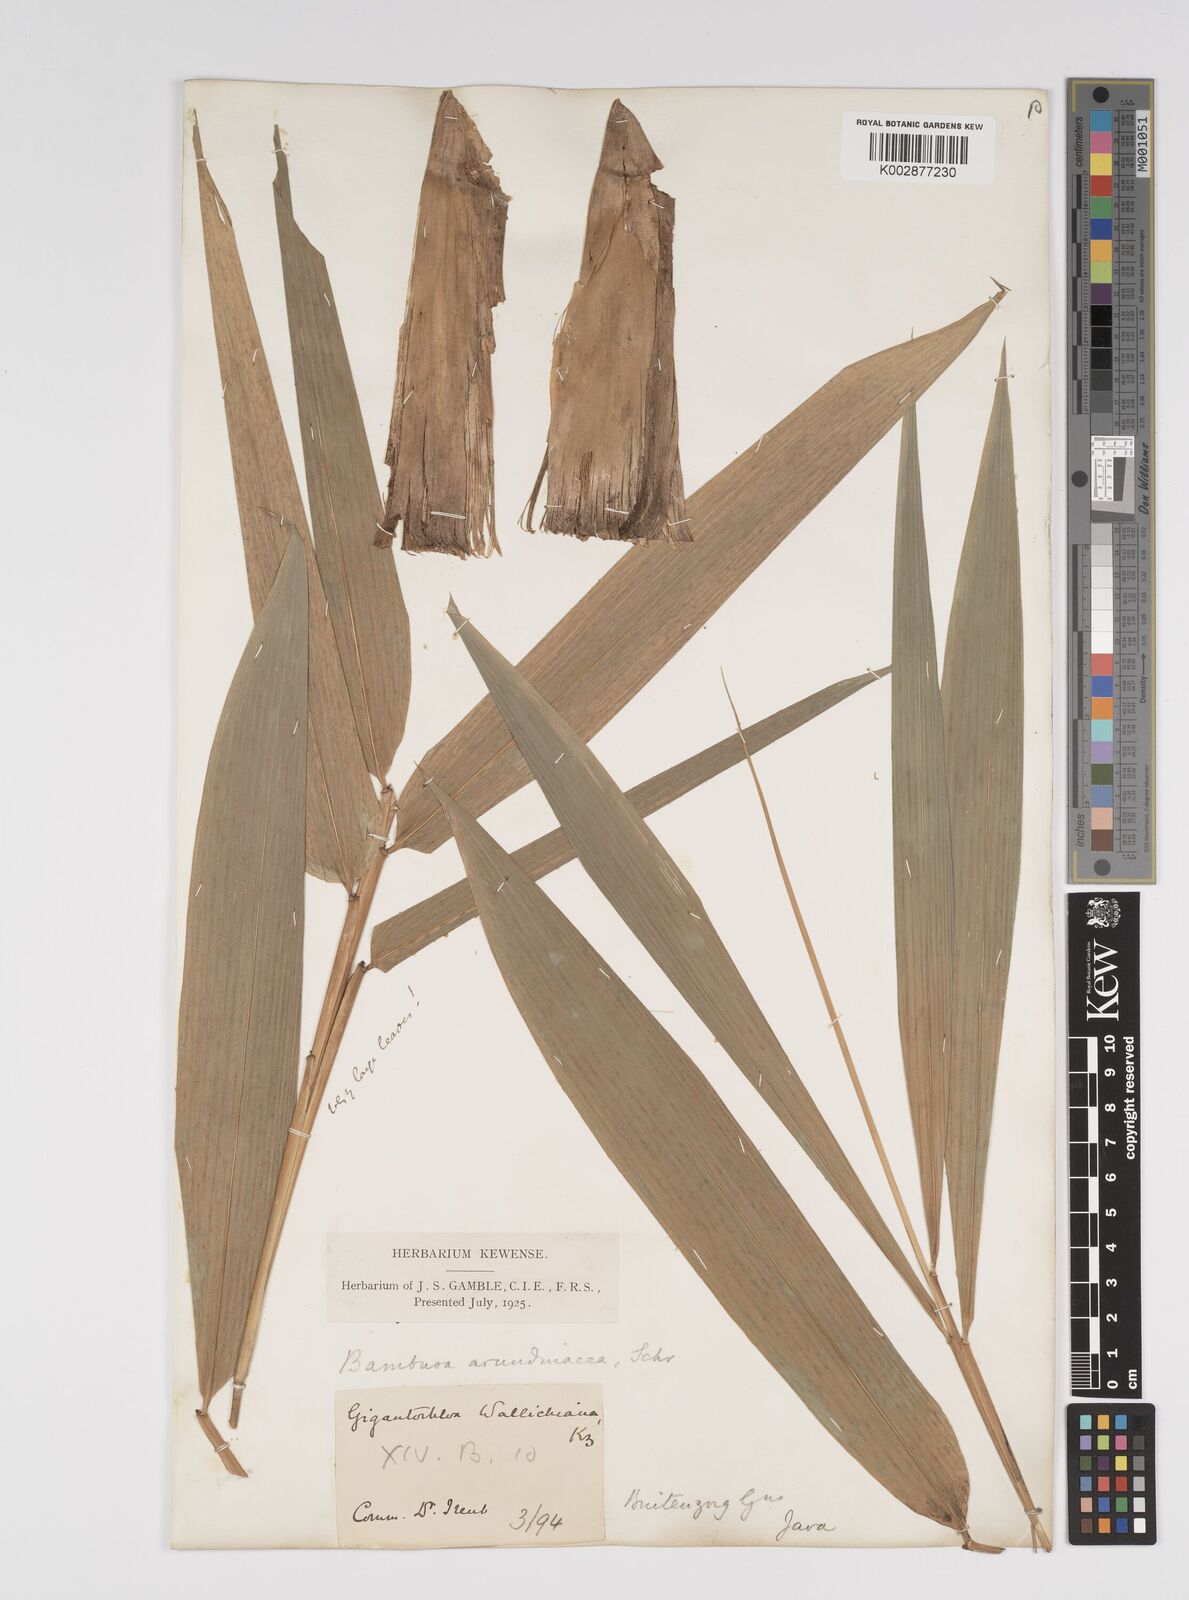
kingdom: Plantae
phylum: Tracheophyta
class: Liliopsida
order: Poales
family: Poaceae
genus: Bambusa
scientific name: Bambusa bambos
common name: Indian thorny bamboo
